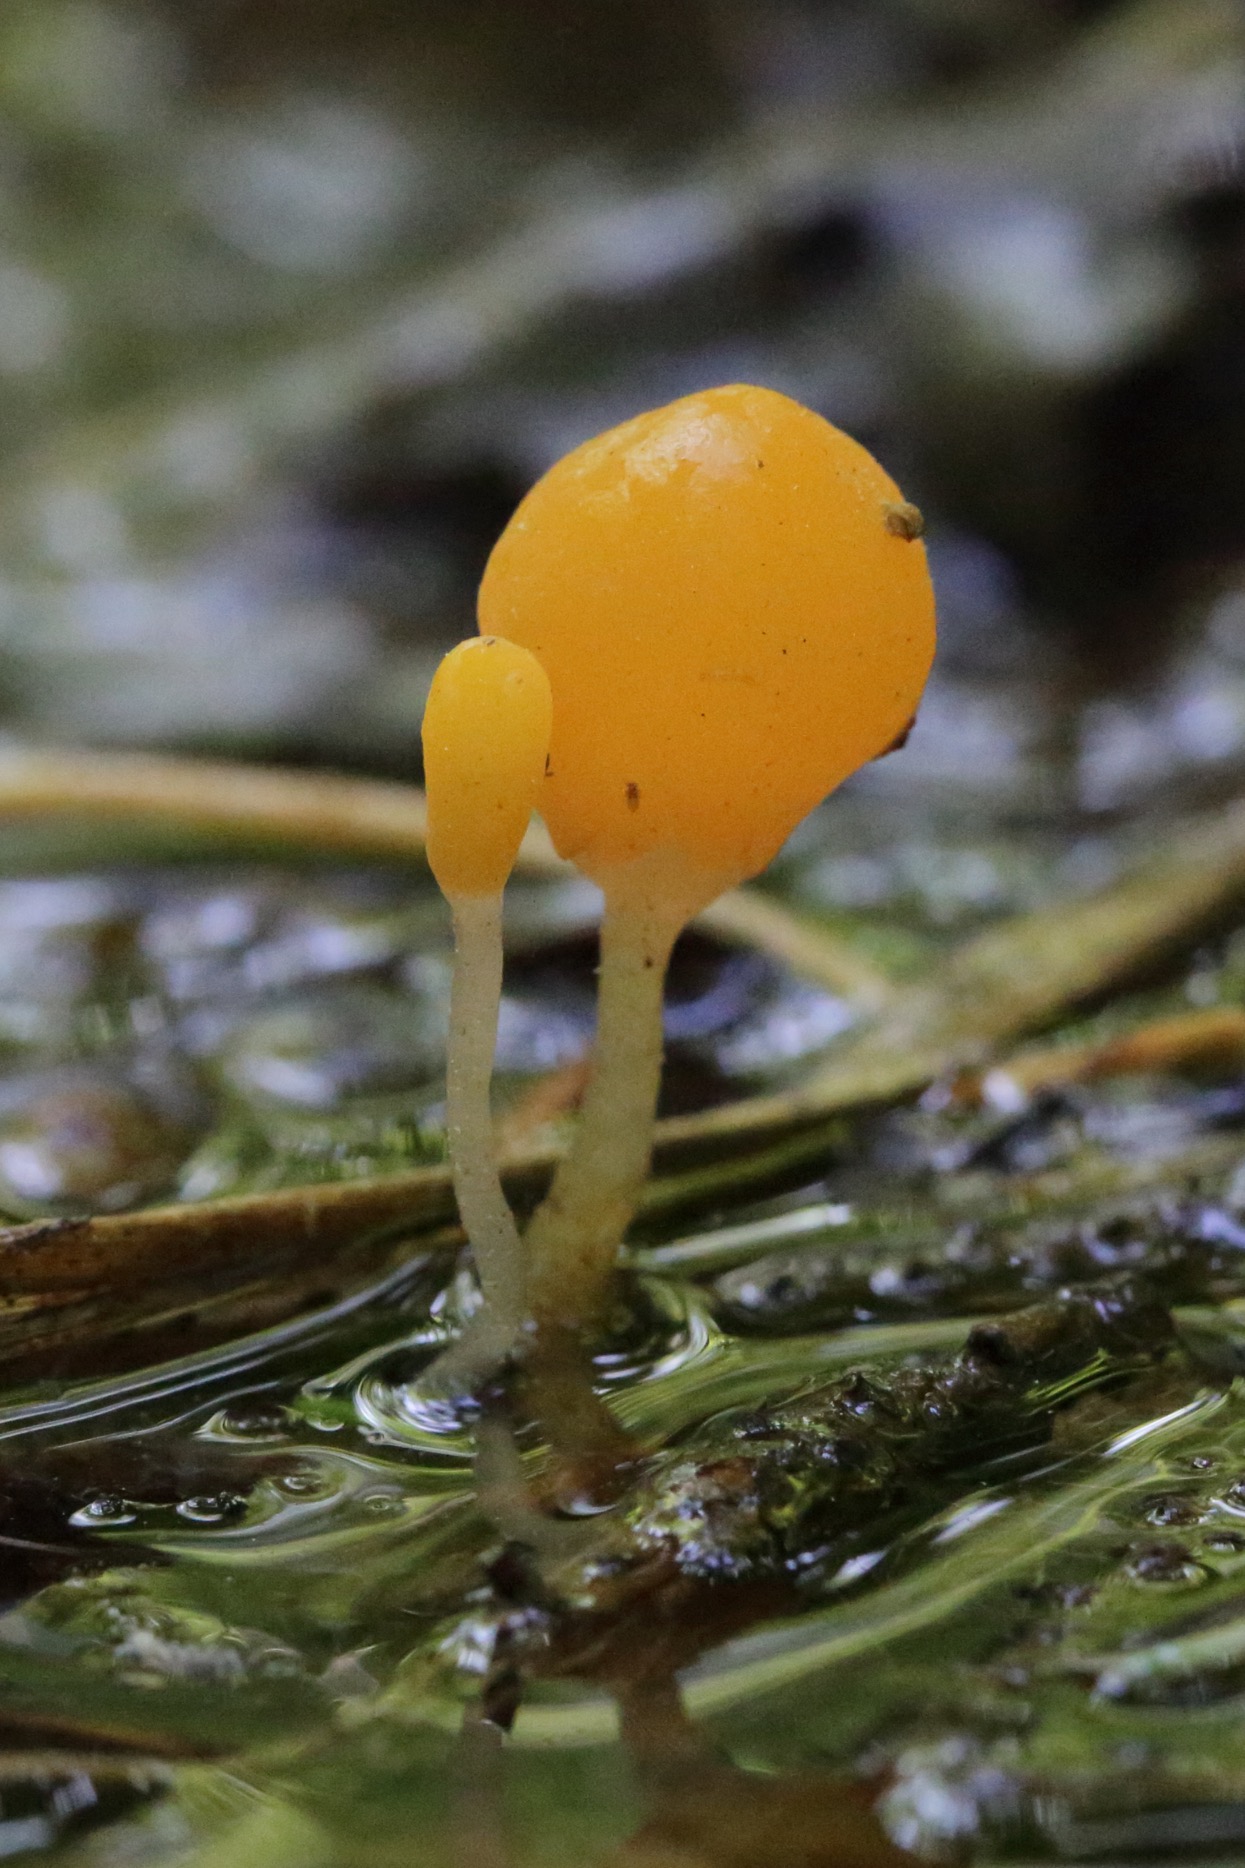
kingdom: Fungi
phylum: Ascomycota
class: Leotiomycetes
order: Helotiales
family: Cenangiaceae
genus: Mitrula
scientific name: Mitrula paludosa
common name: Gul nøkketunge
